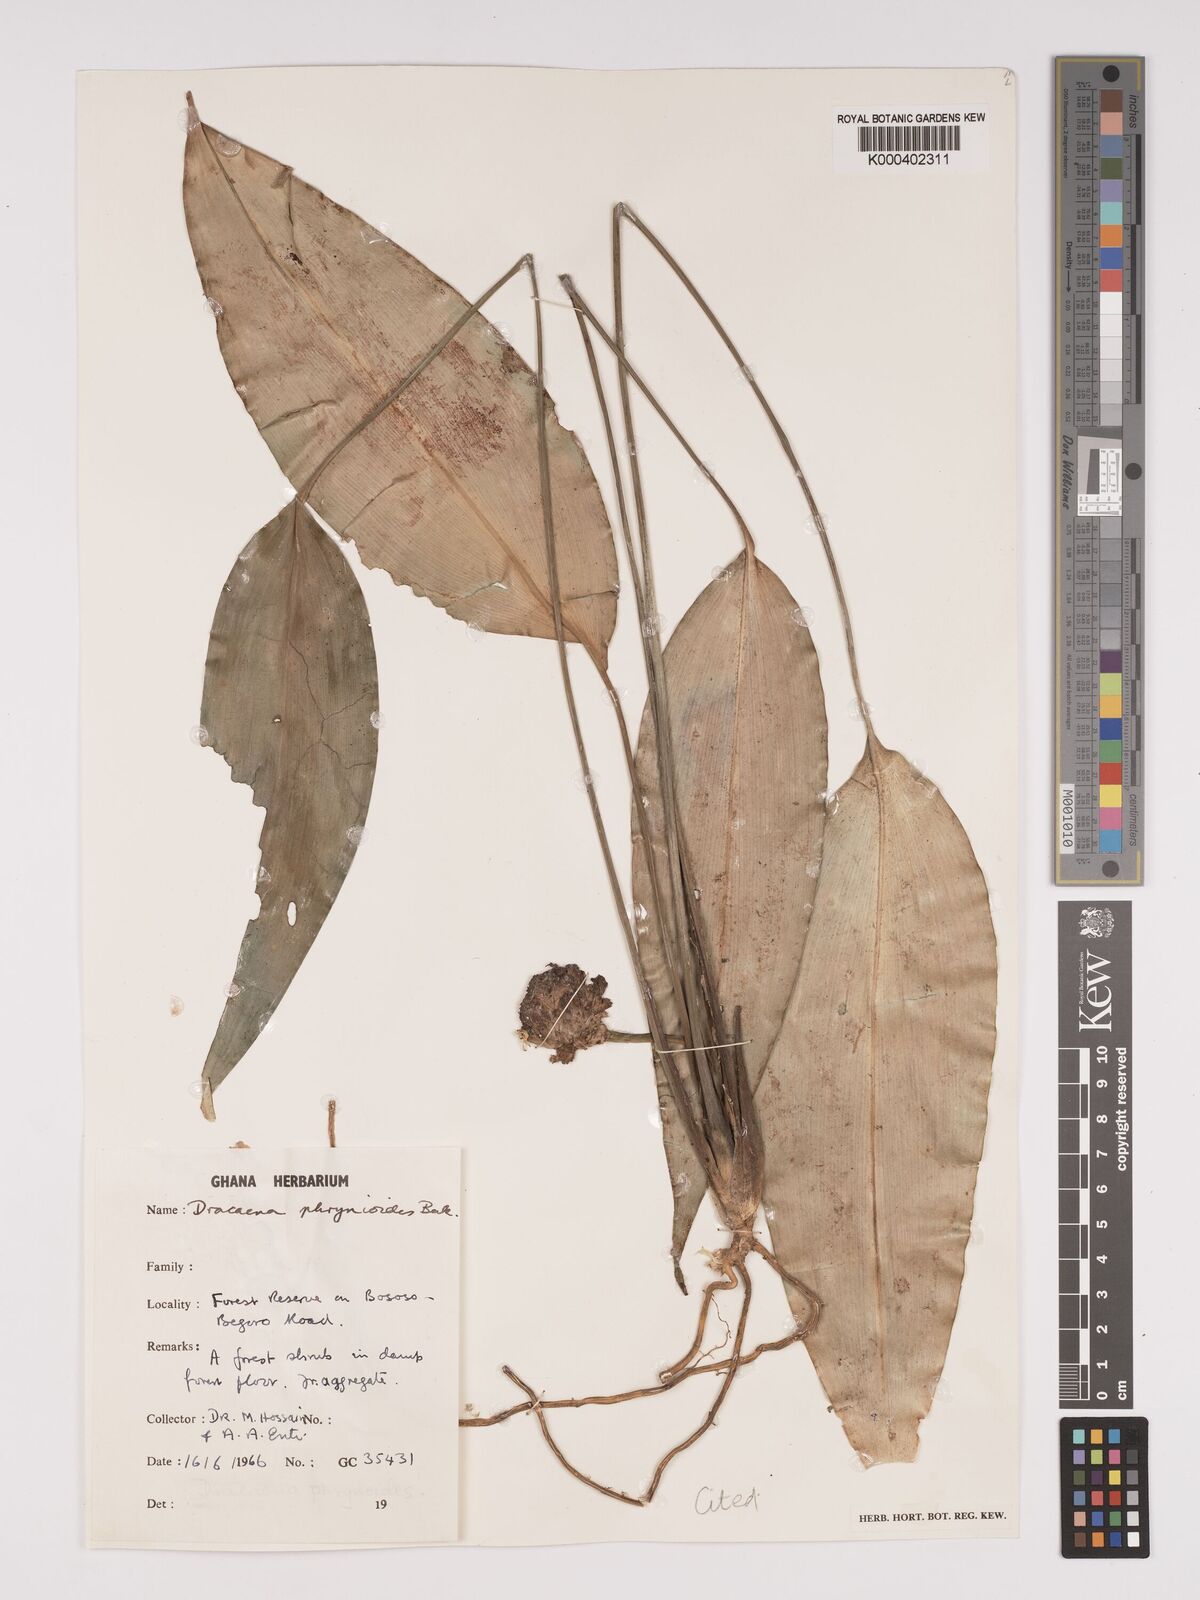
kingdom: Plantae
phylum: Tracheophyta
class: Liliopsida
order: Asparagales
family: Asparagaceae
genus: Dracaena
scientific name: Dracaena phrynioides
